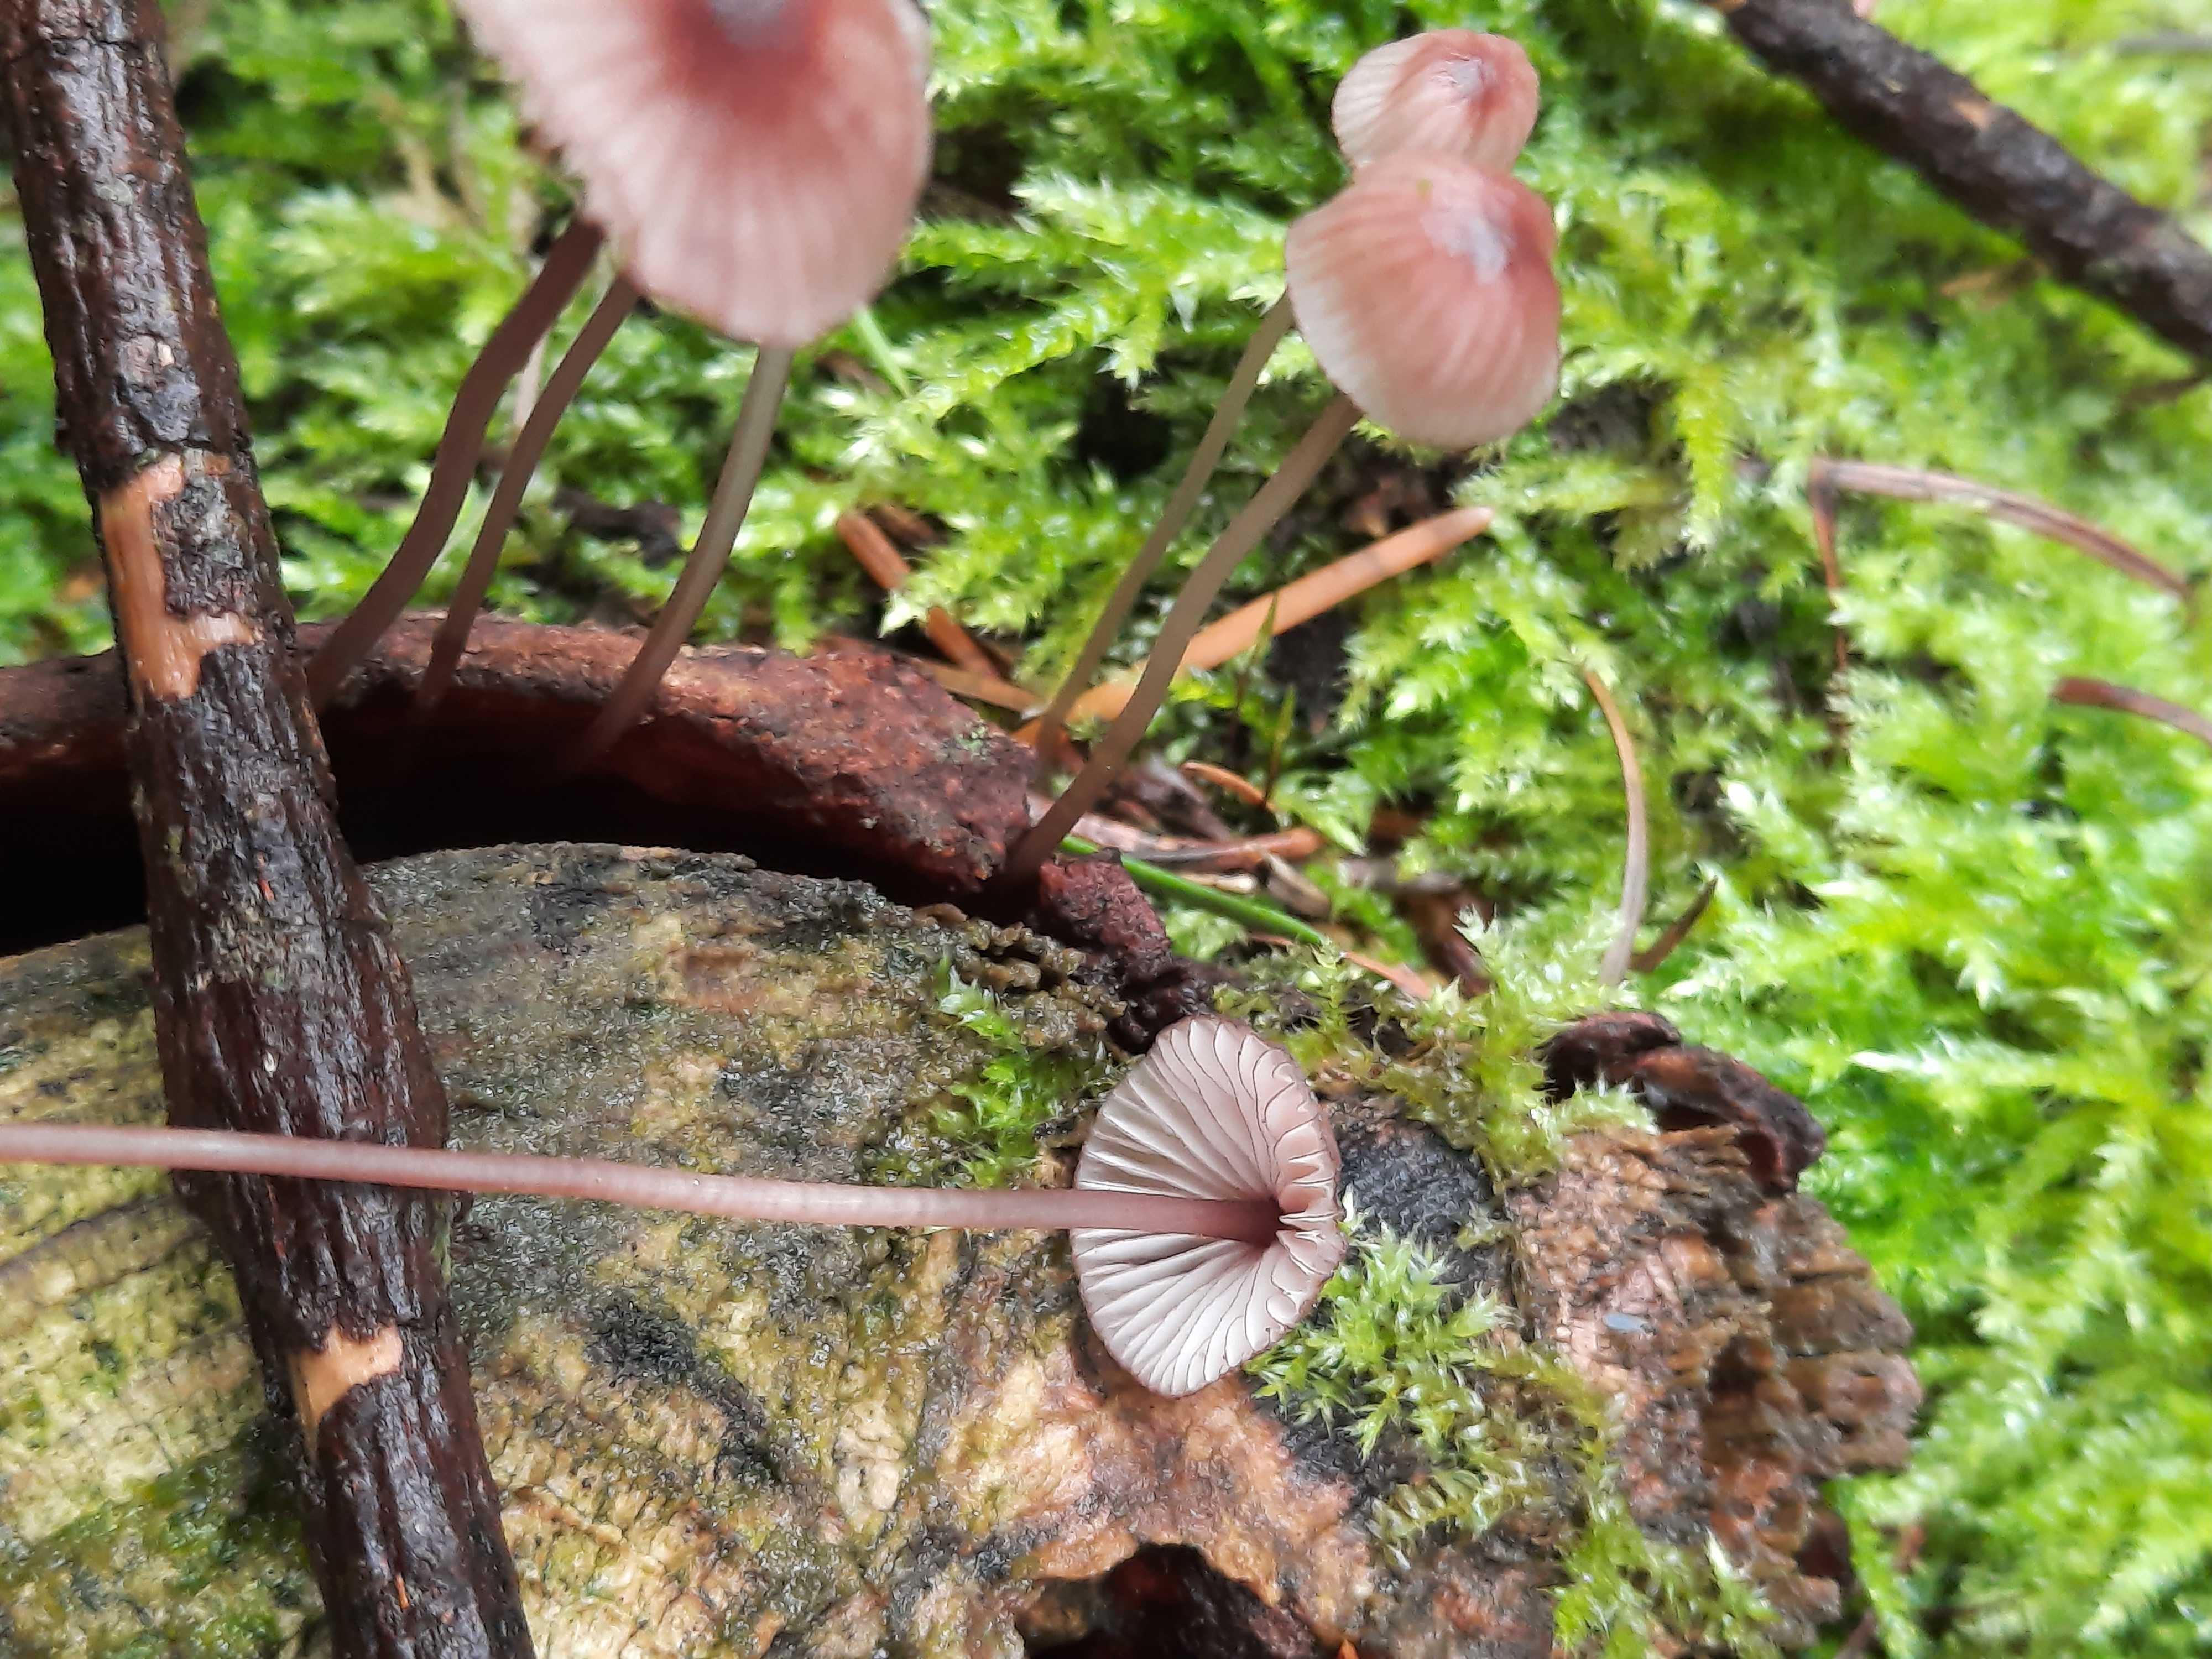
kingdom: Fungi
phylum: Basidiomycota
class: Agaricomycetes
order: Agaricales
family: Mycenaceae
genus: Mycena
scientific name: Mycena sanguinolenta
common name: rødmælket huesvamp
